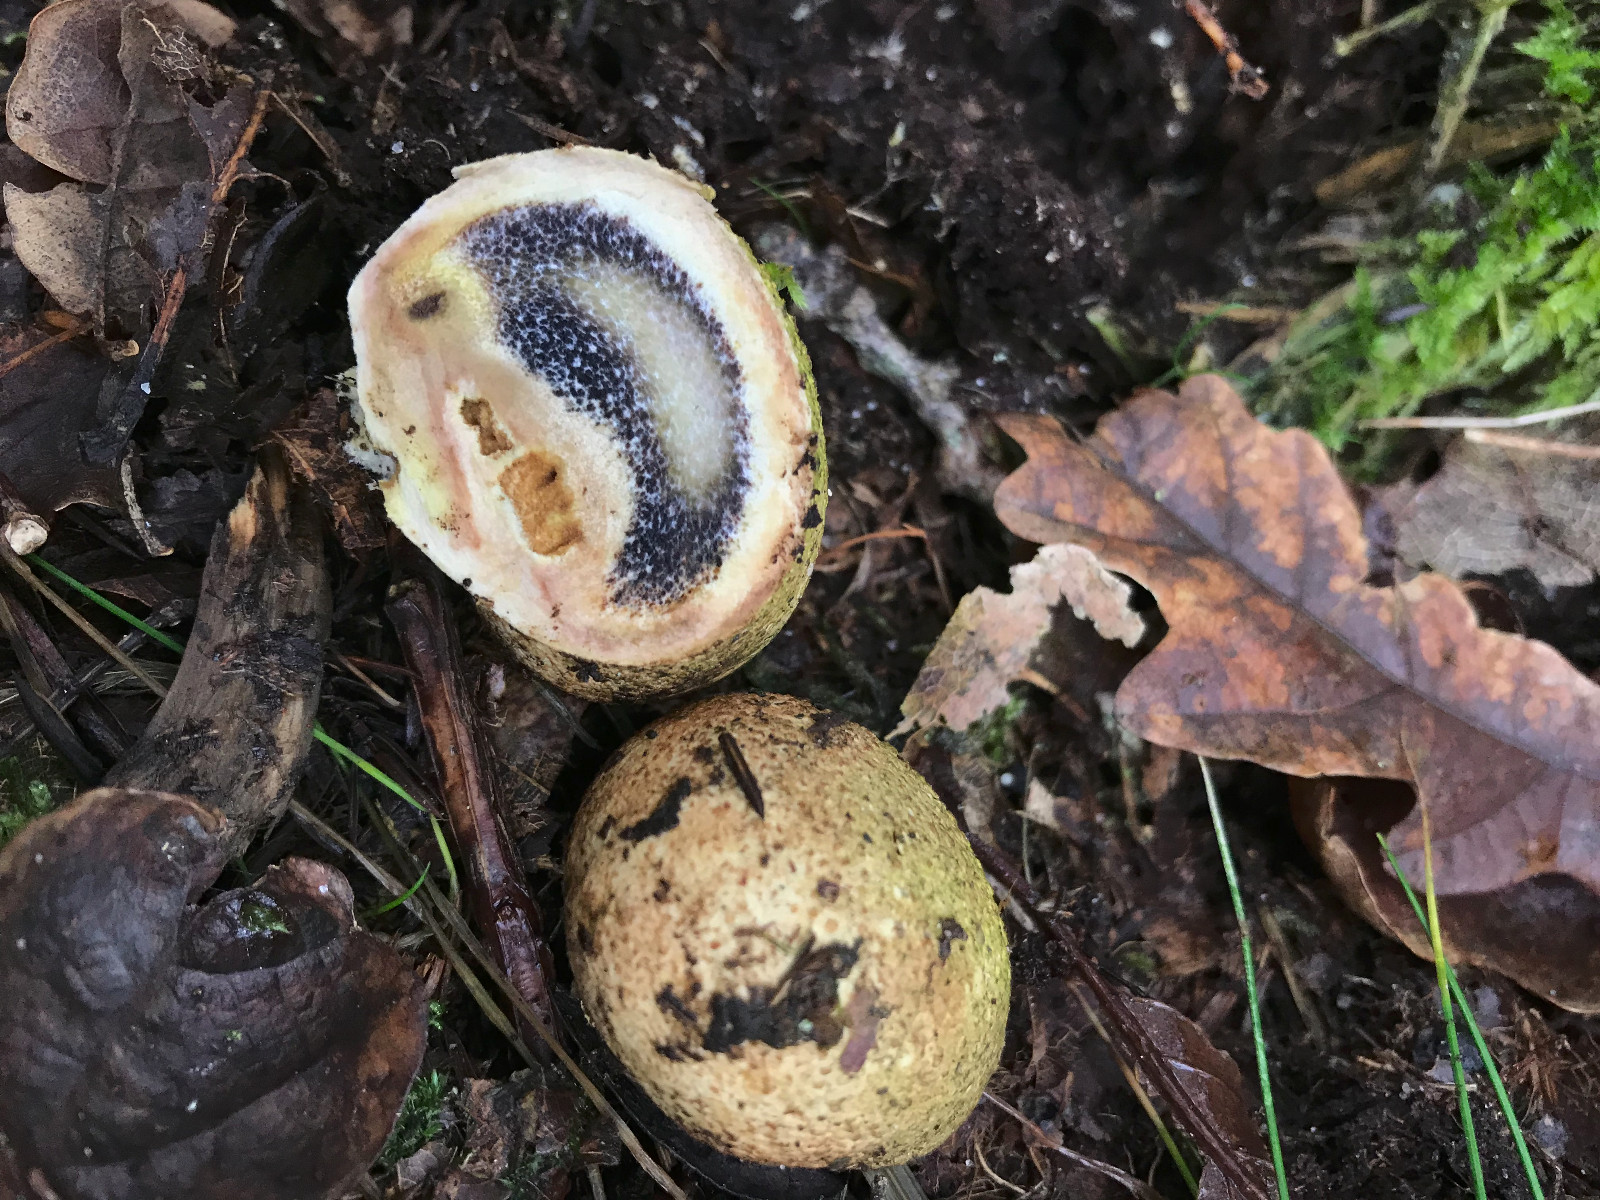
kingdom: Fungi
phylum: Basidiomycota
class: Agaricomycetes
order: Boletales
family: Sclerodermataceae
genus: Scleroderma
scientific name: Scleroderma citrinum
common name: almindelig bruskbold
